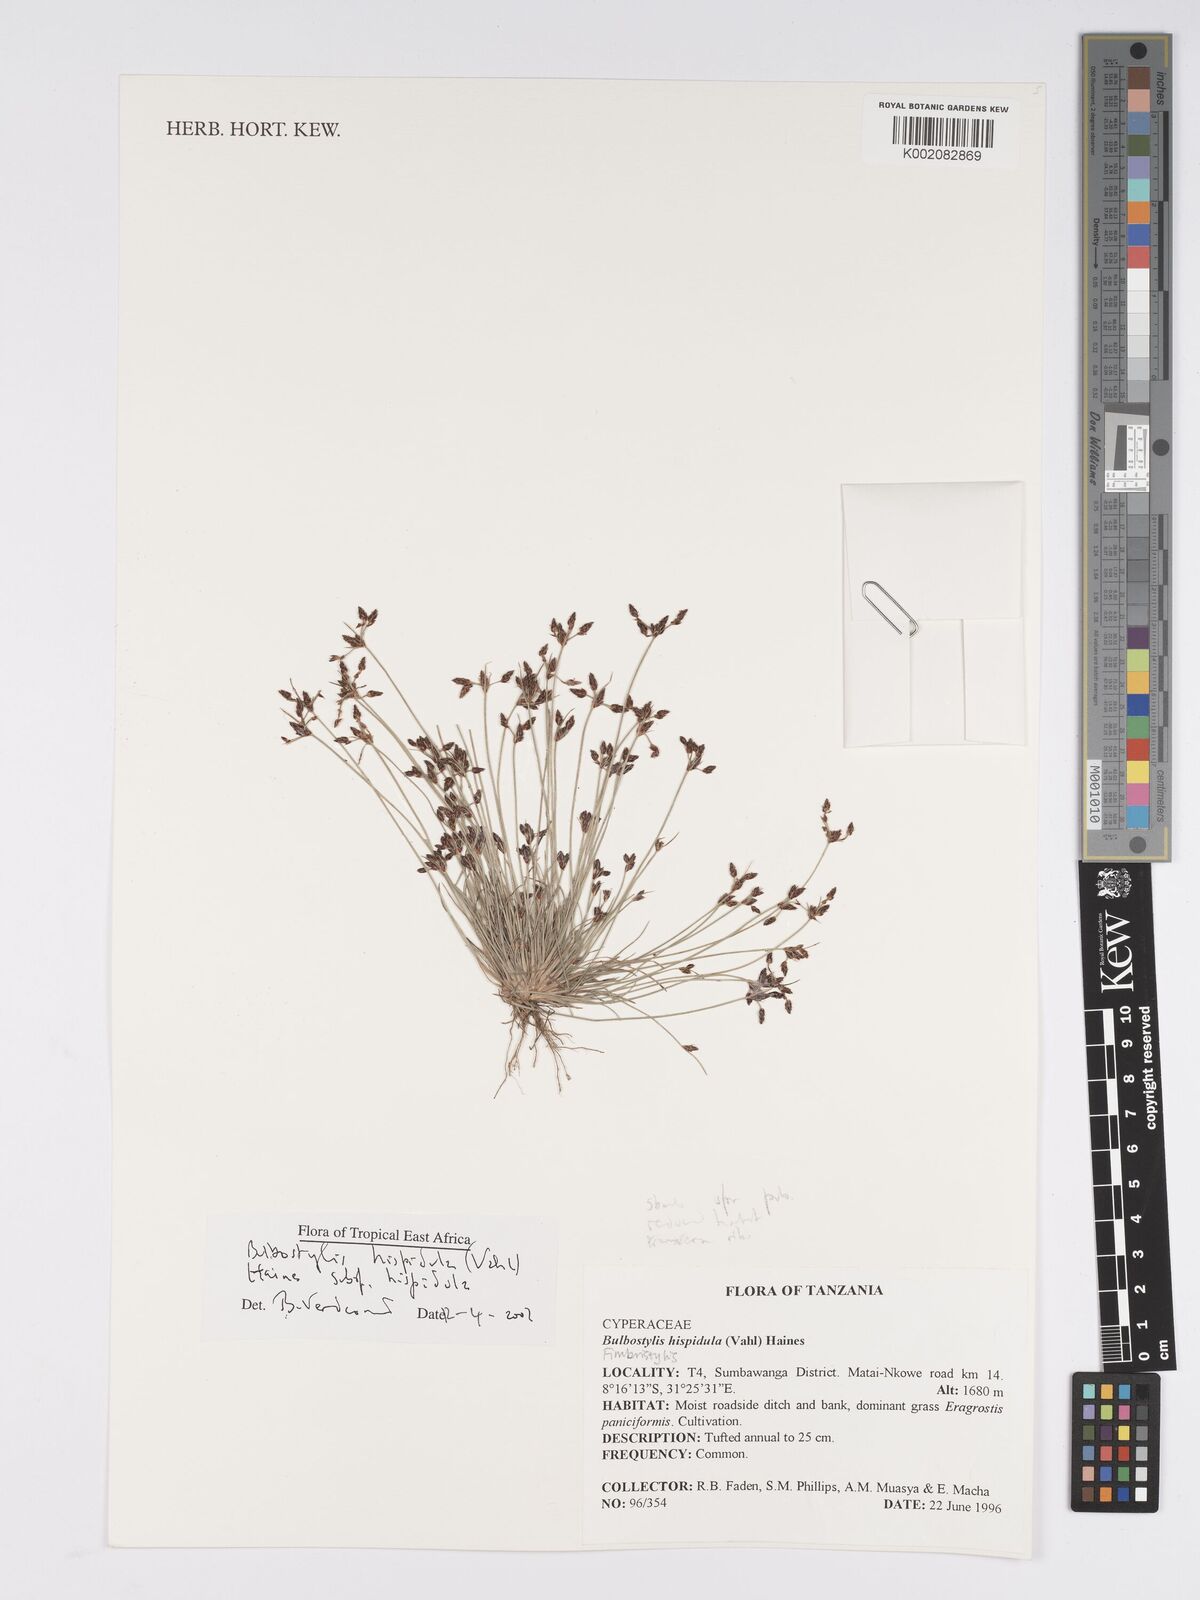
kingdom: Plantae
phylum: Tracheophyta
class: Liliopsida
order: Poales
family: Cyperaceae
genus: Bulbostylis
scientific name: Bulbostylis hispidula
